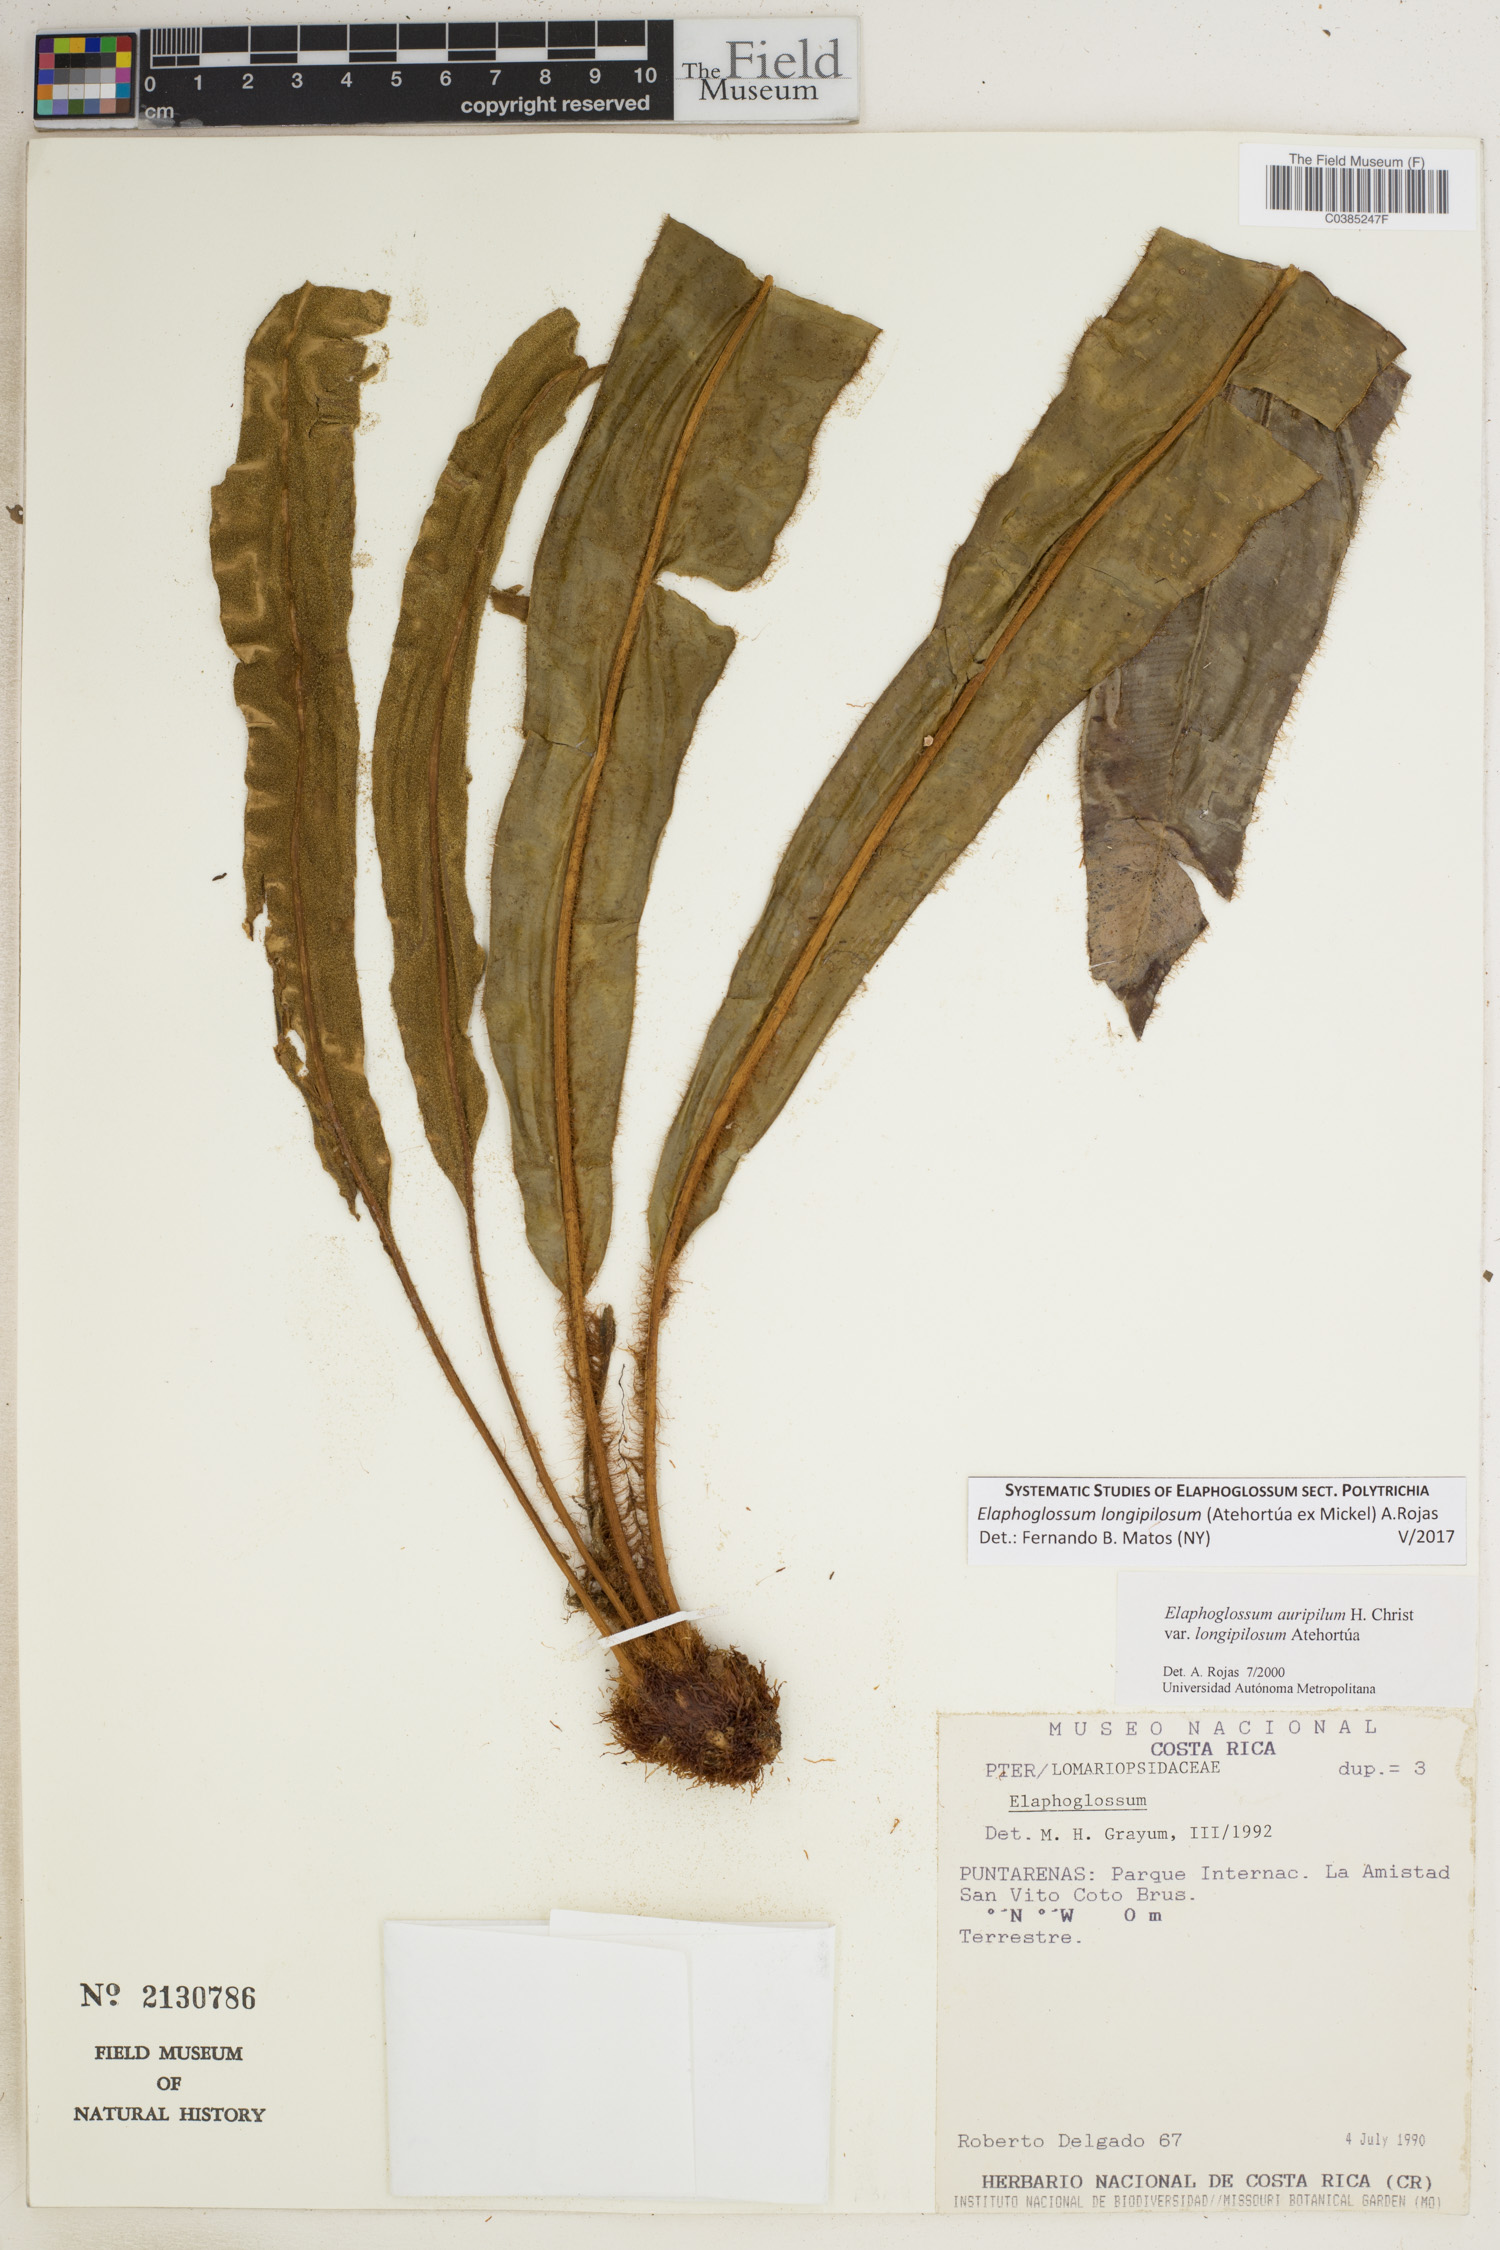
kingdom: Plantae
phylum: Tracheophyta
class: Polypodiopsida
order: Polypodiales
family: Dryopteridaceae
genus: Elaphoglossum
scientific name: Elaphoglossum longipilosum
